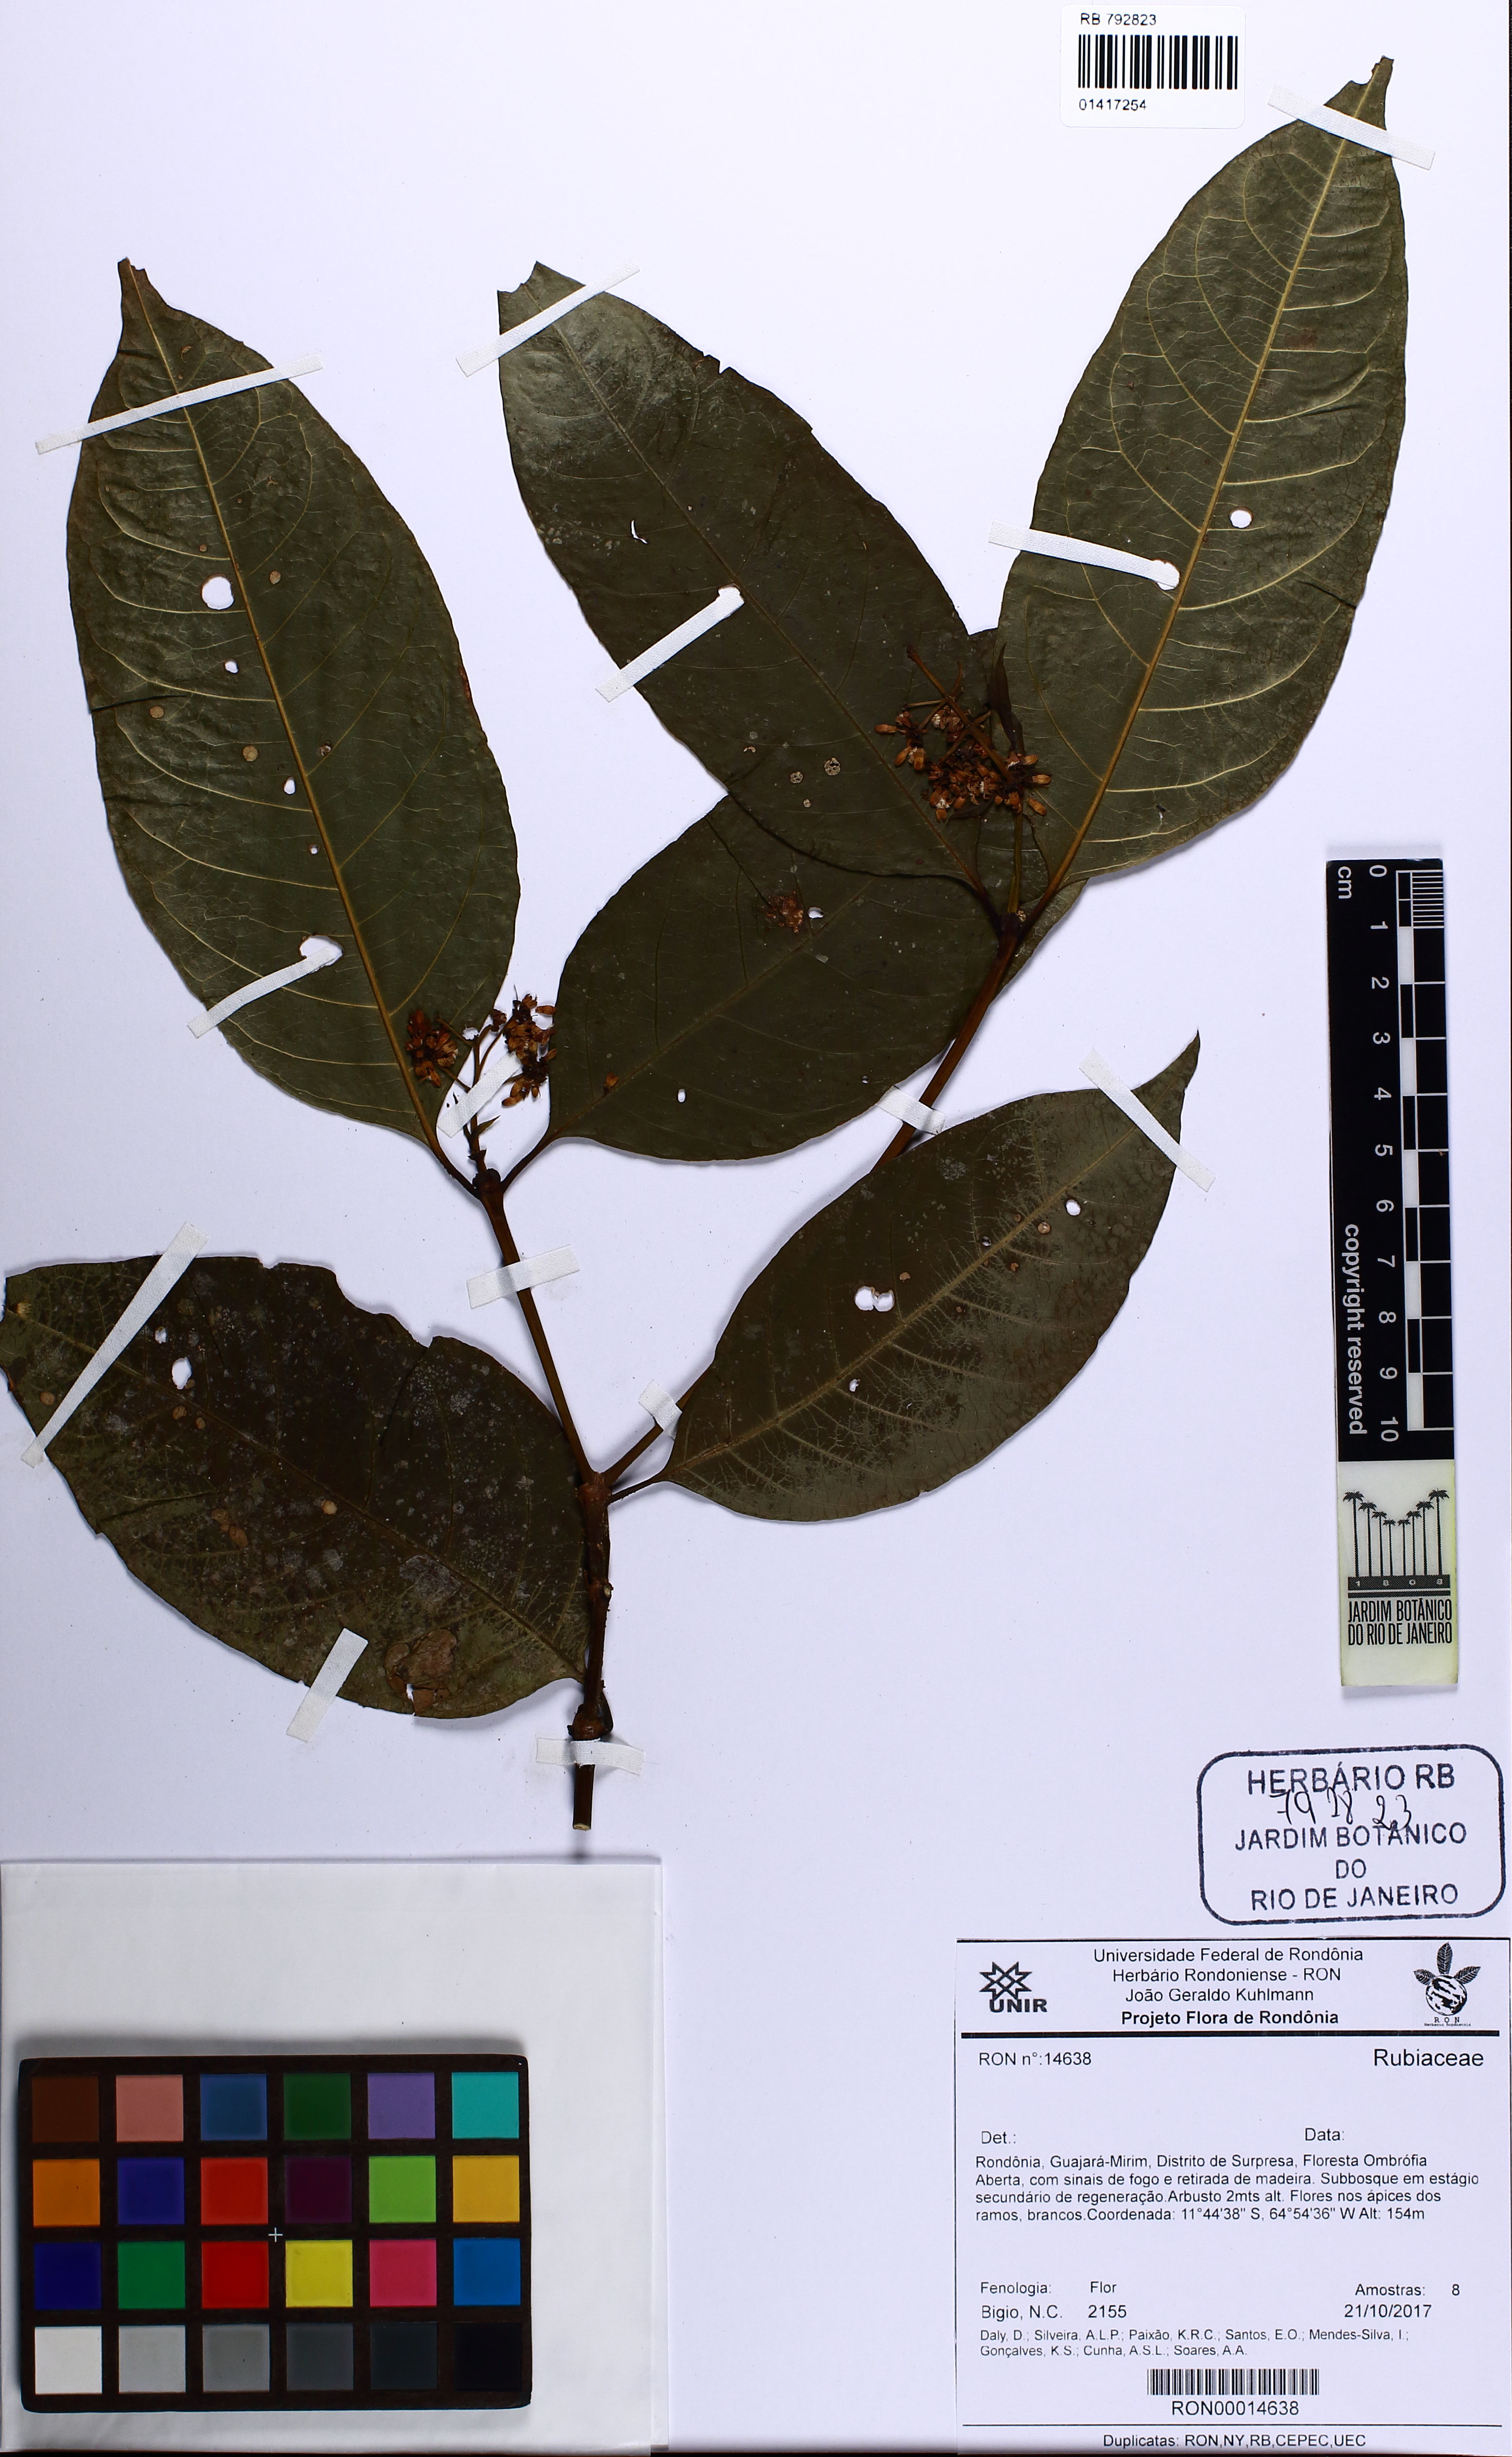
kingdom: Plantae
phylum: Tracheophyta
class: Magnoliopsida
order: Gentianales
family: Rubiaceae
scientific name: Rubiaceae
